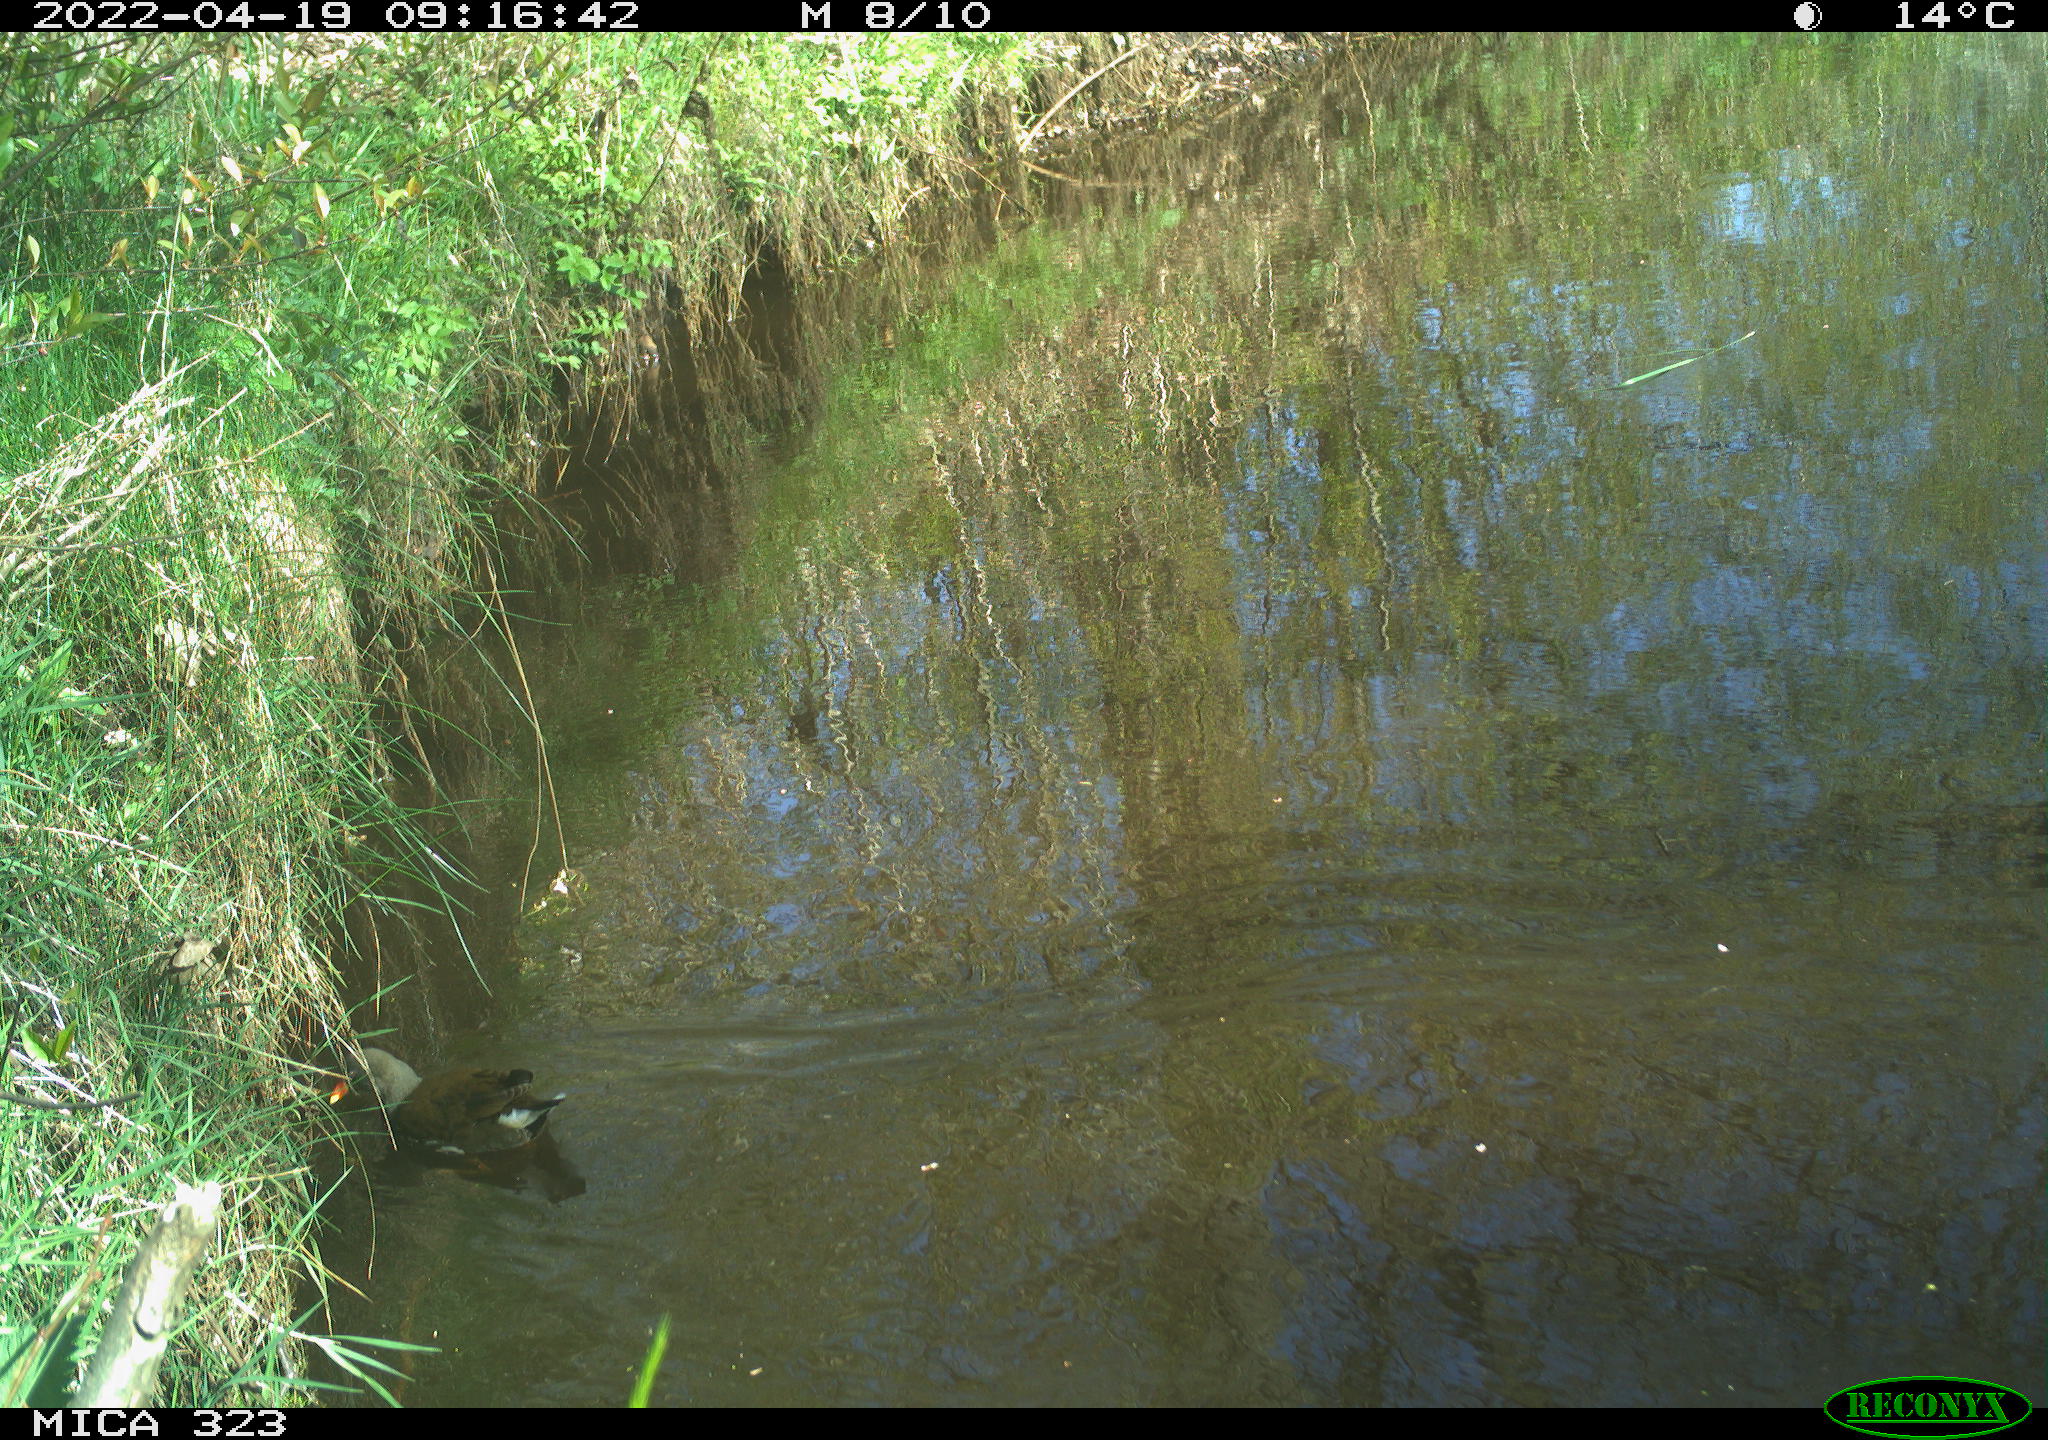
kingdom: Animalia
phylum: Chordata
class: Aves
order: Gruiformes
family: Rallidae
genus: Gallinula
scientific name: Gallinula chloropus
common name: Common moorhen
